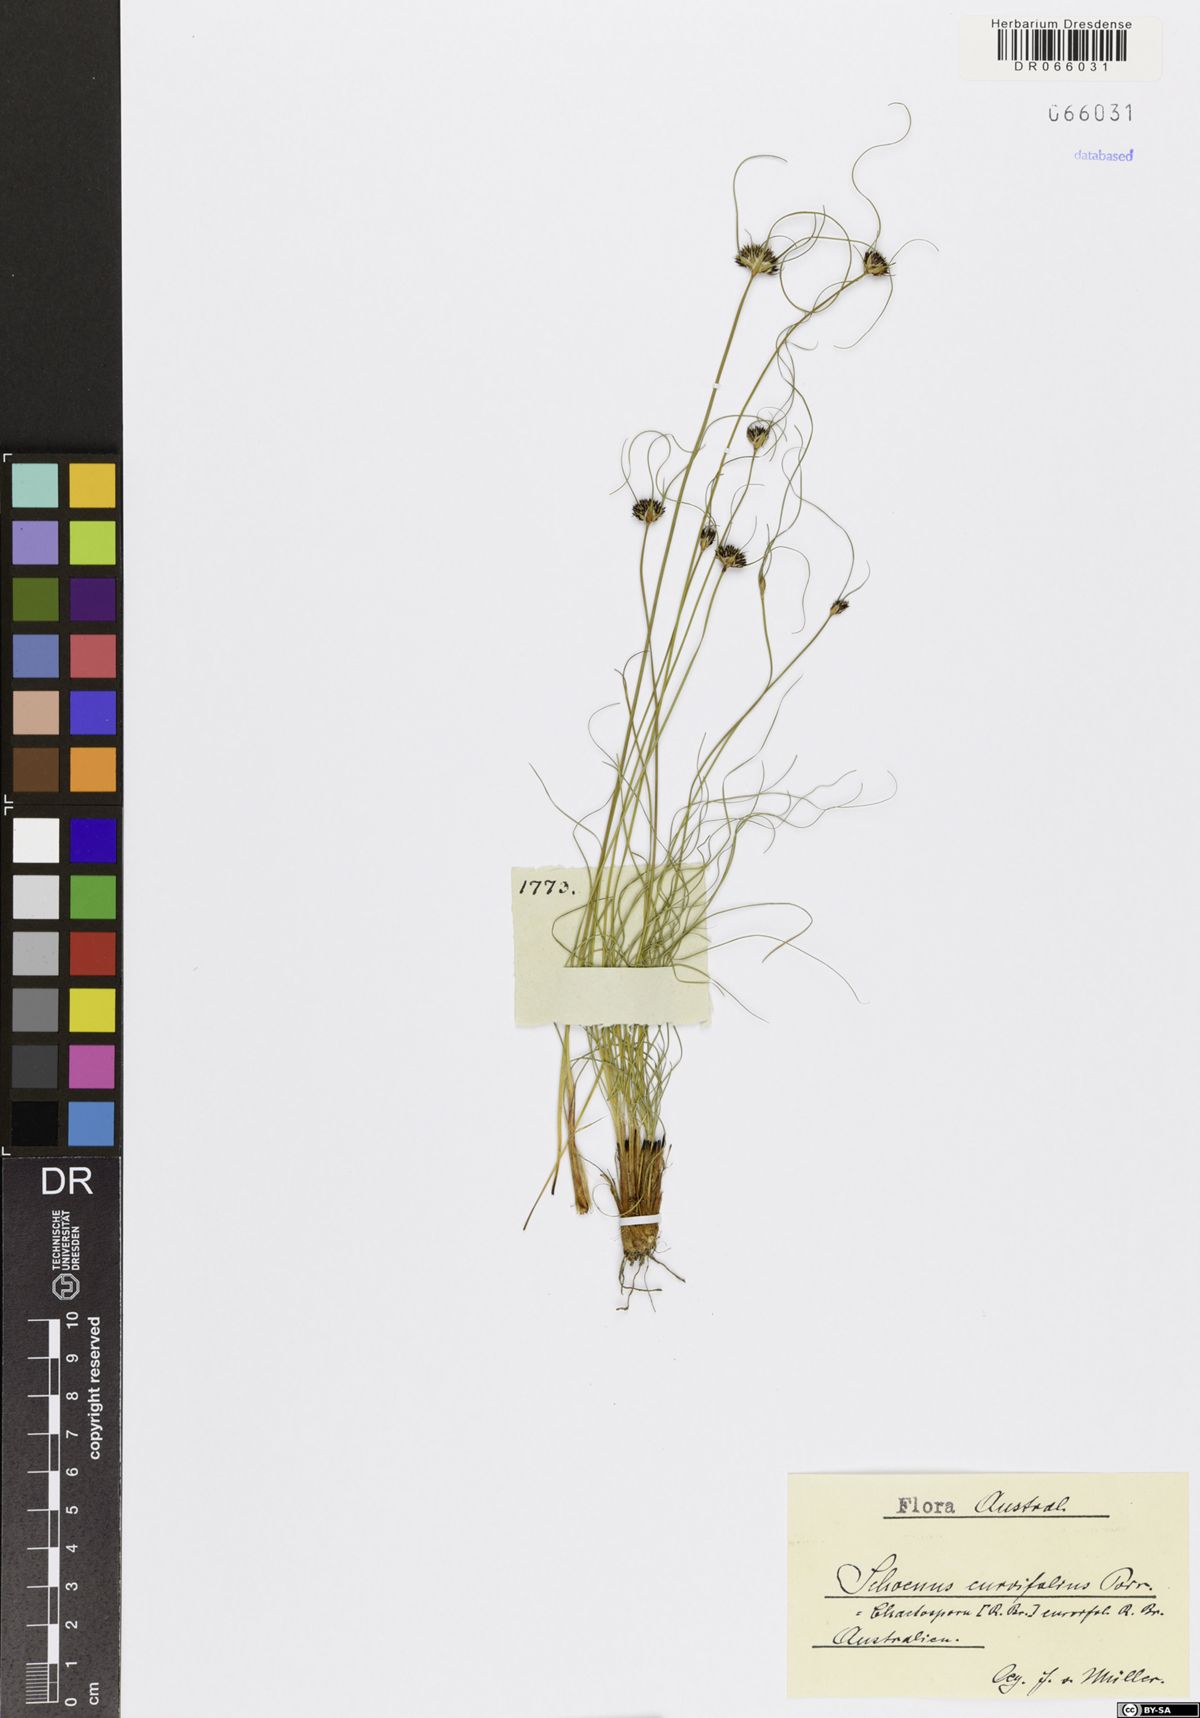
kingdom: Plantae
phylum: Tracheophyta
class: Liliopsida
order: Poales
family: Cyperaceae
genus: Schoenus
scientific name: Schoenus curvifolius
